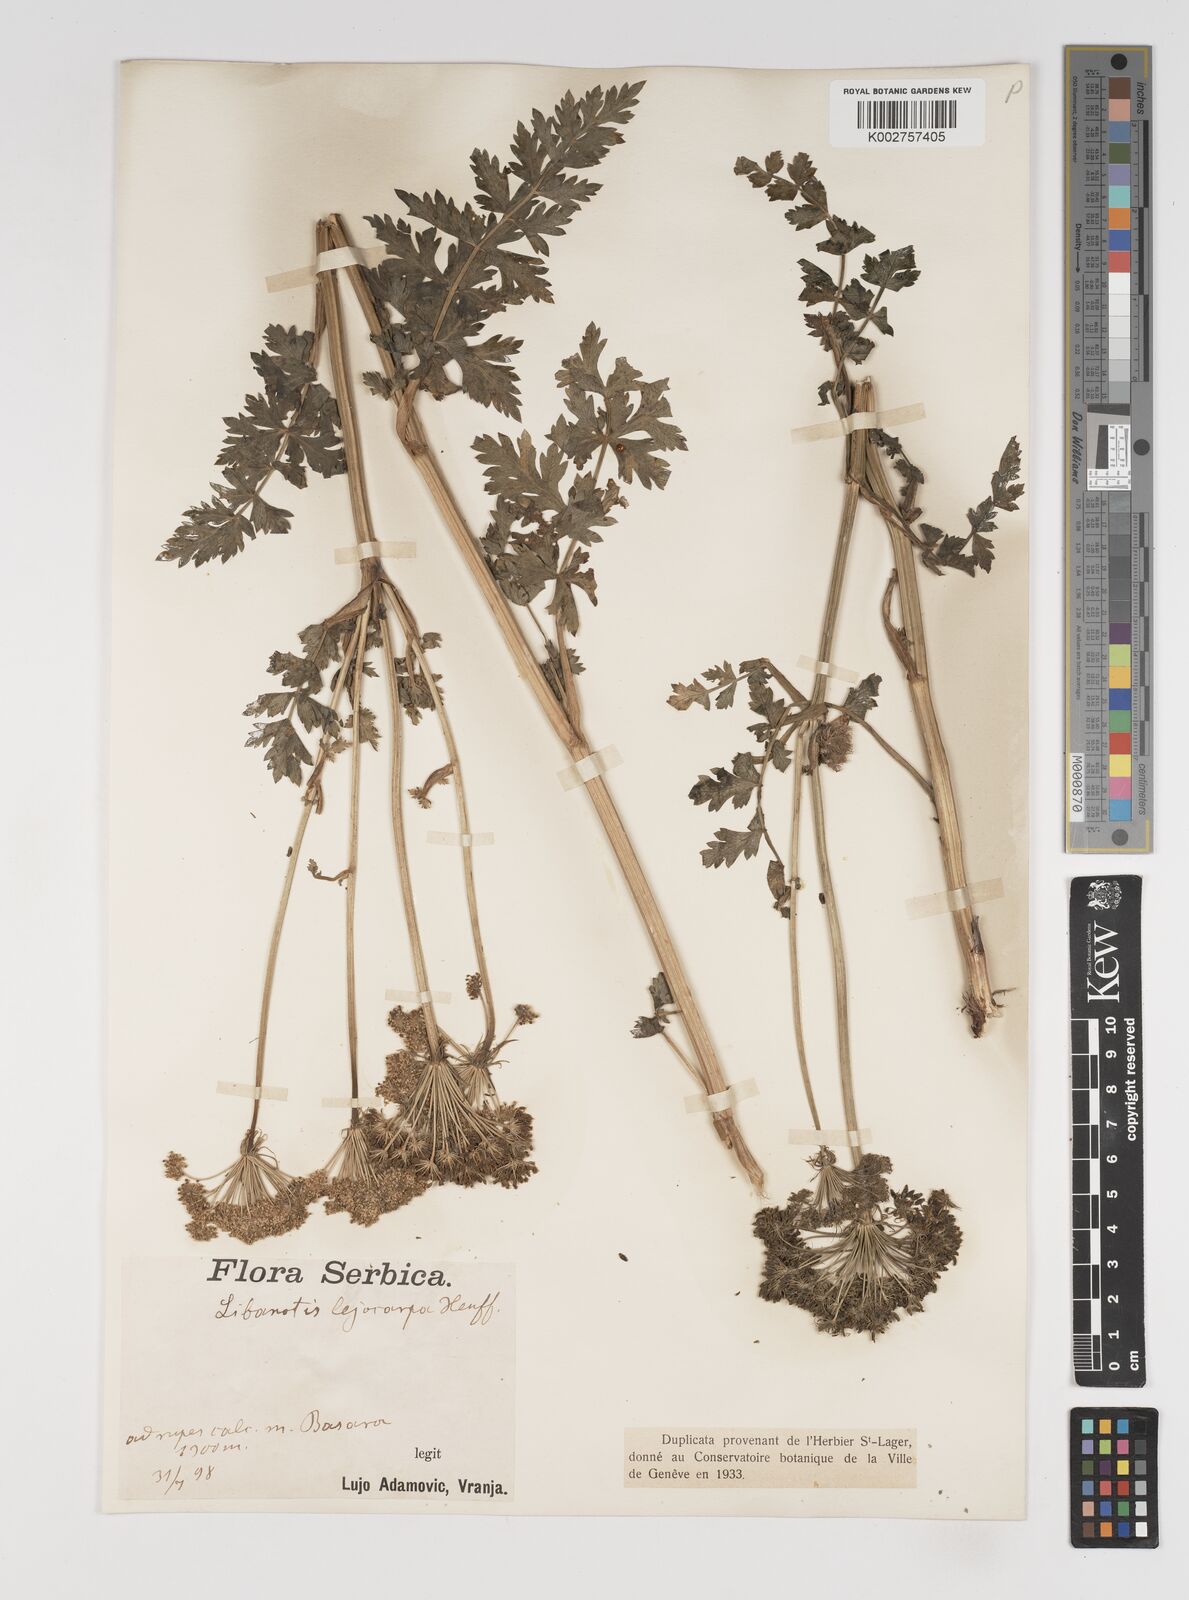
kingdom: Plantae
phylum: Tracheophyta
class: Magnoliopsida
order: Apiales
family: Apiaceae
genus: Seseli
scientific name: Seseli
